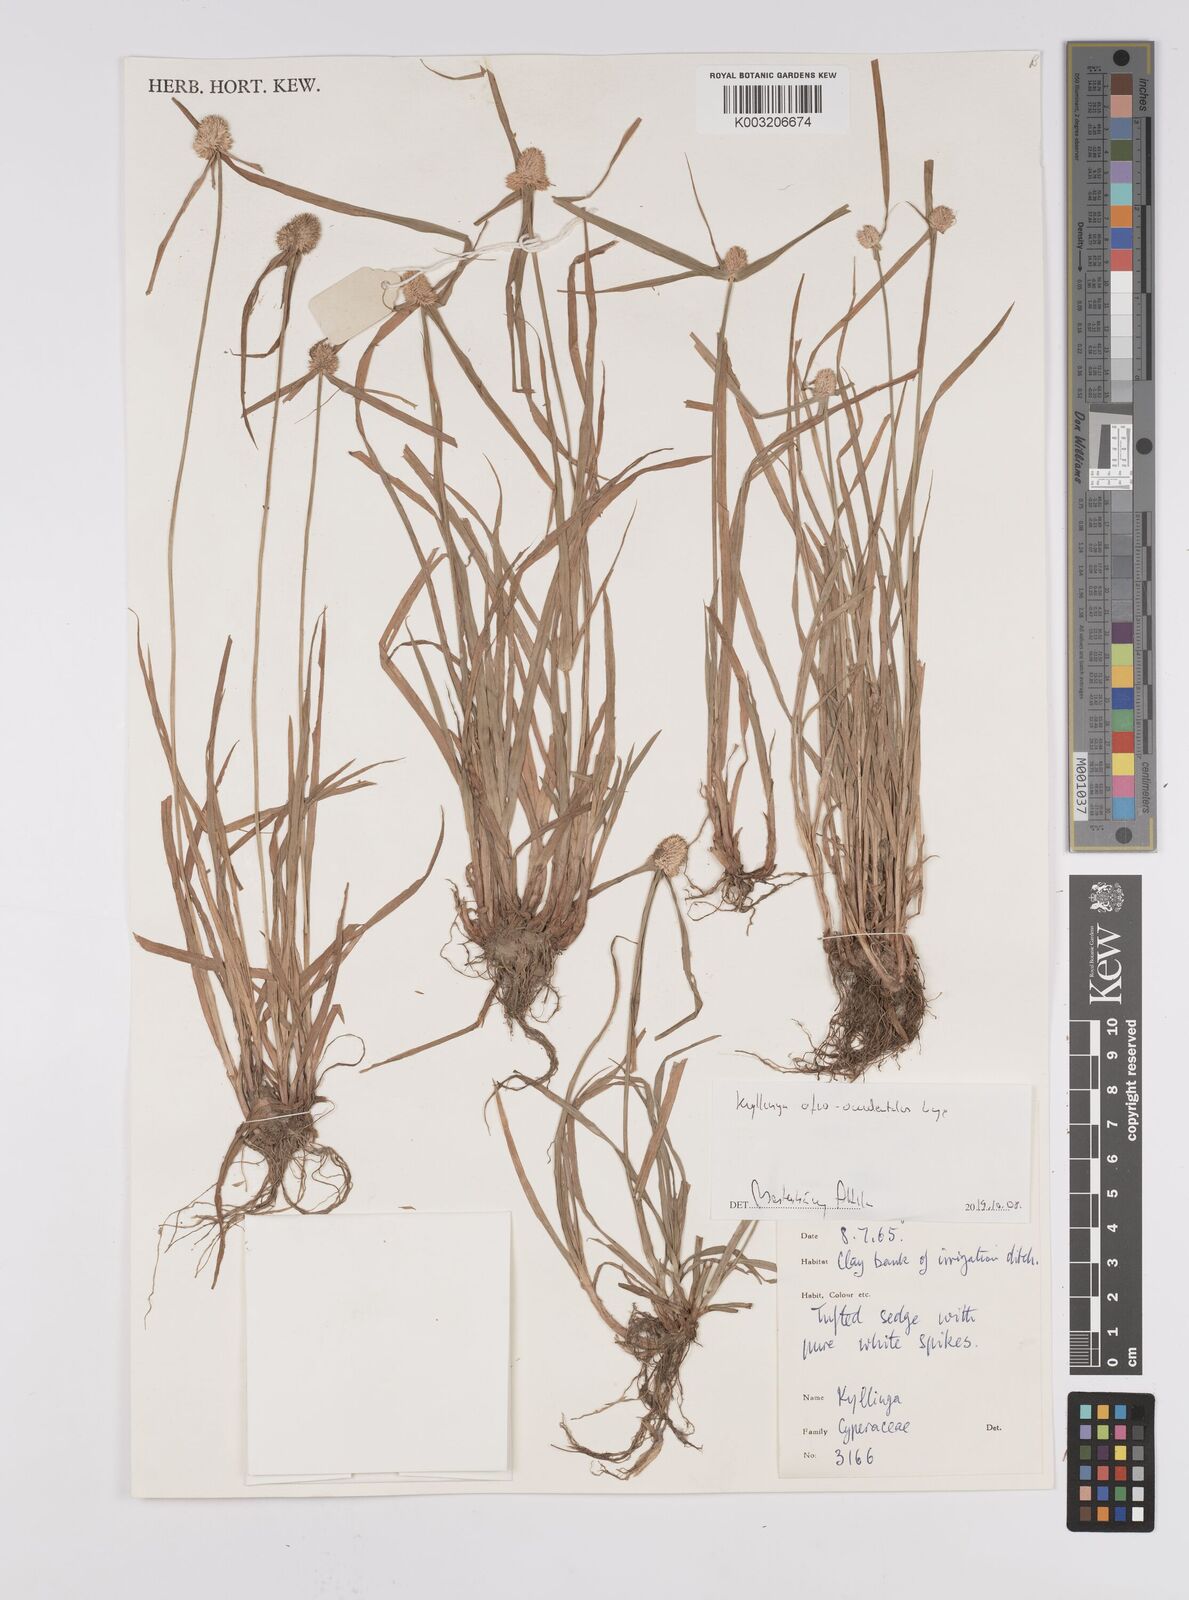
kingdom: Plantae
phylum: Tracheophyta
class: Liliopsida
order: Poales
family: Cyperaceae
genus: Cyperus
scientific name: Cyperus afro-occidentalis
